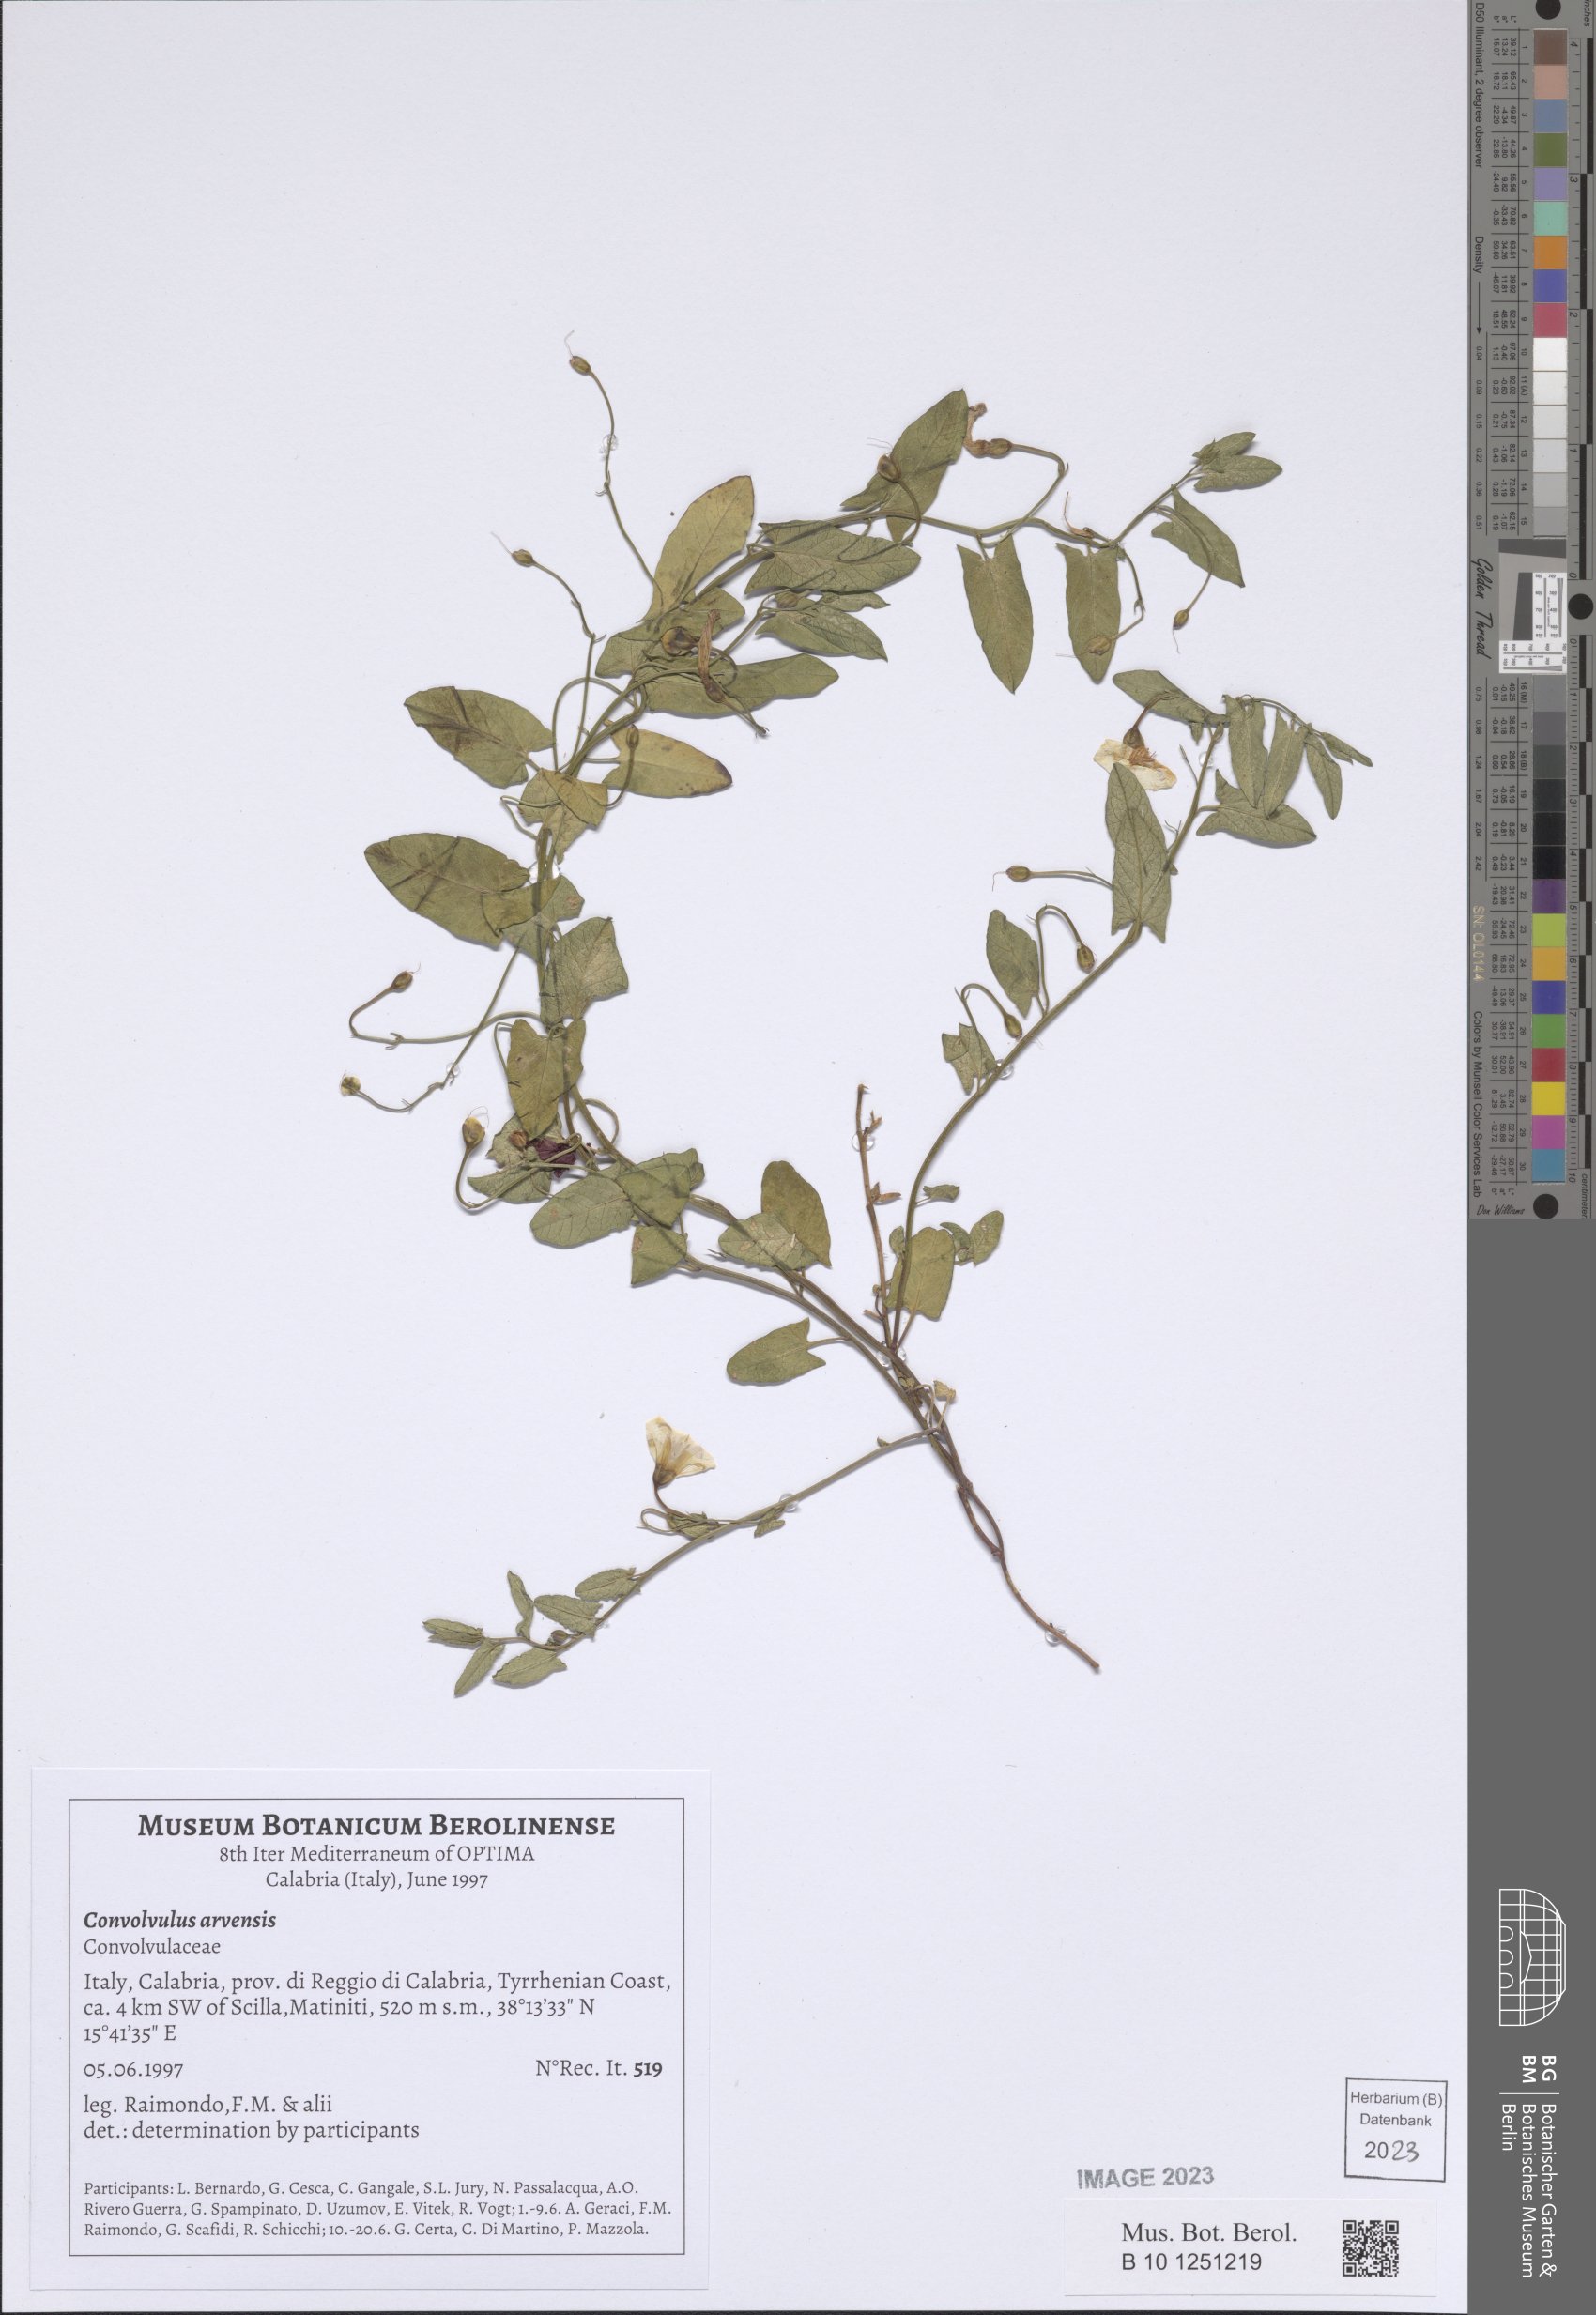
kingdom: Plantae
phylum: Tracheophyta
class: Magnoliopsida
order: Solanales
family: Convolvulaceae
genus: Convolvulus
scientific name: Convolvulus arvensis
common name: Field bindweed
